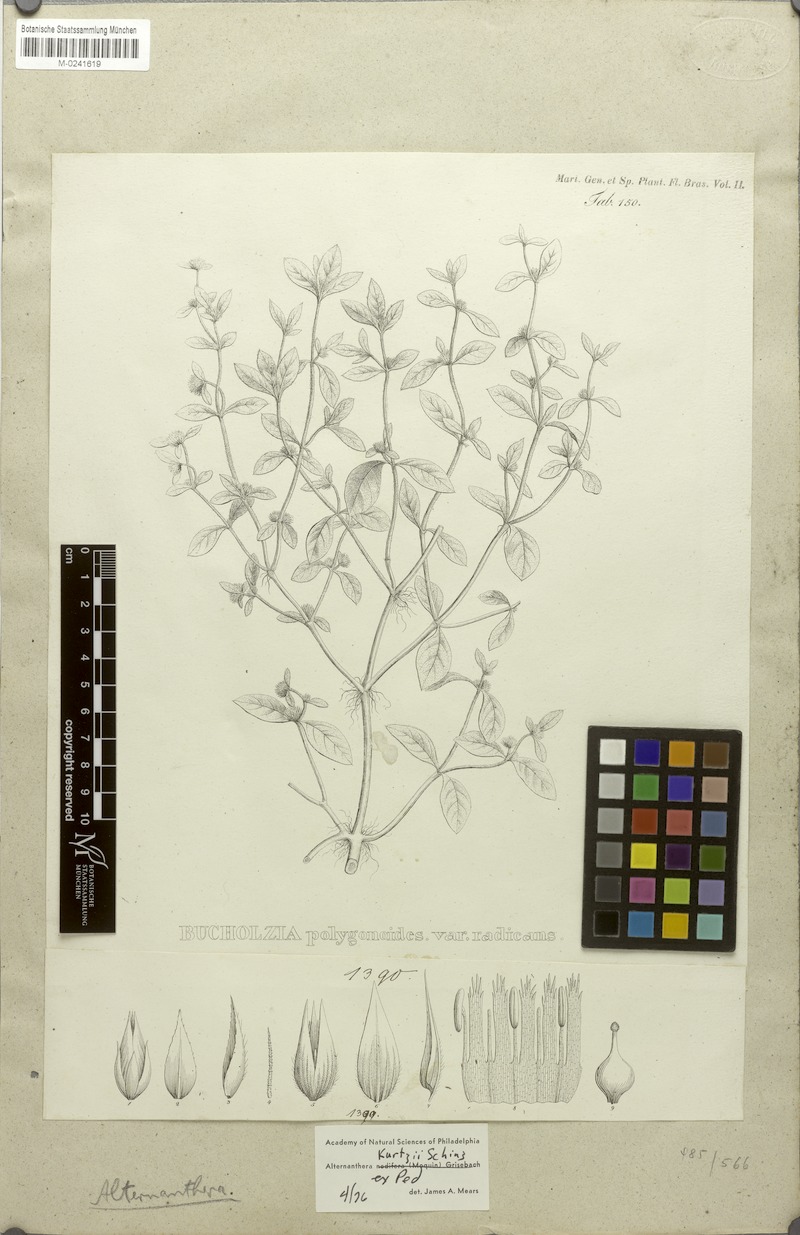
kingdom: Plantae
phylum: Tracheophyta
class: Magnoliopsida
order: Caryophyllales
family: Amaranthaceae
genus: Alternanthera
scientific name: Alternanthera ficoidea
